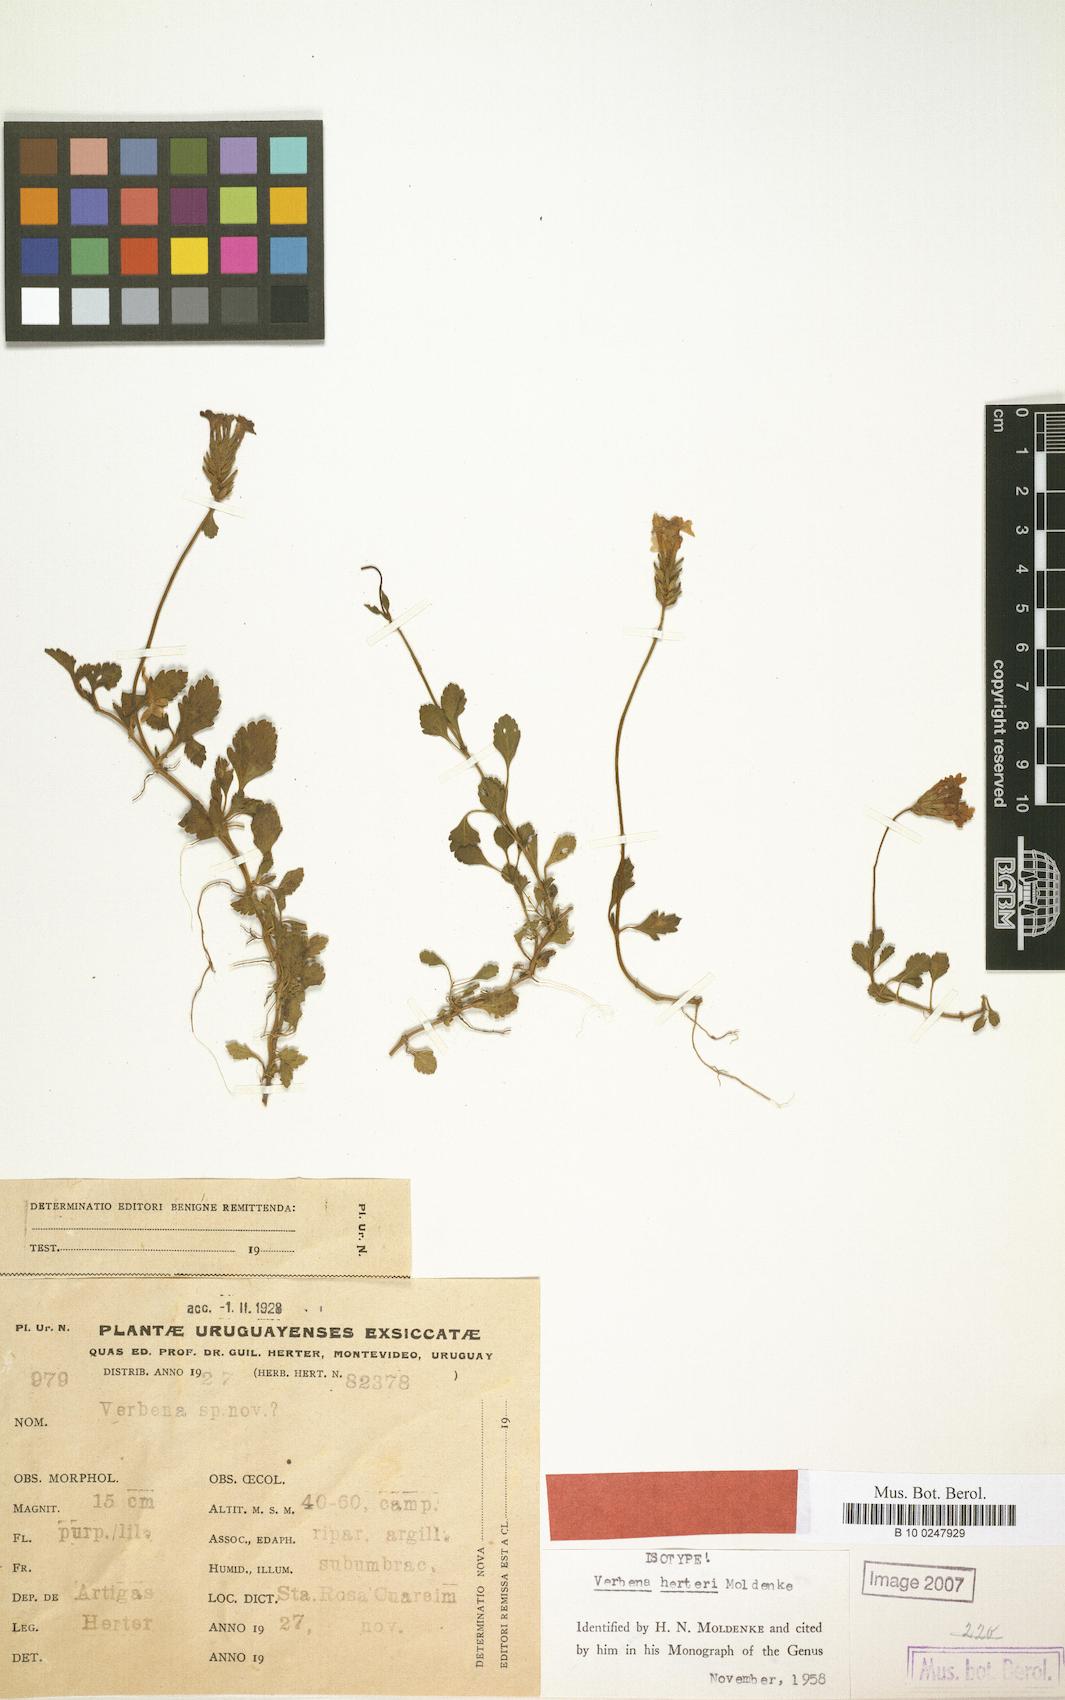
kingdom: Plantae
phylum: Tracheophyta
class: Magnoliopsida
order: Lamiales
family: Verbenaceae
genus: Verbena
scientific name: Verbena herteri
